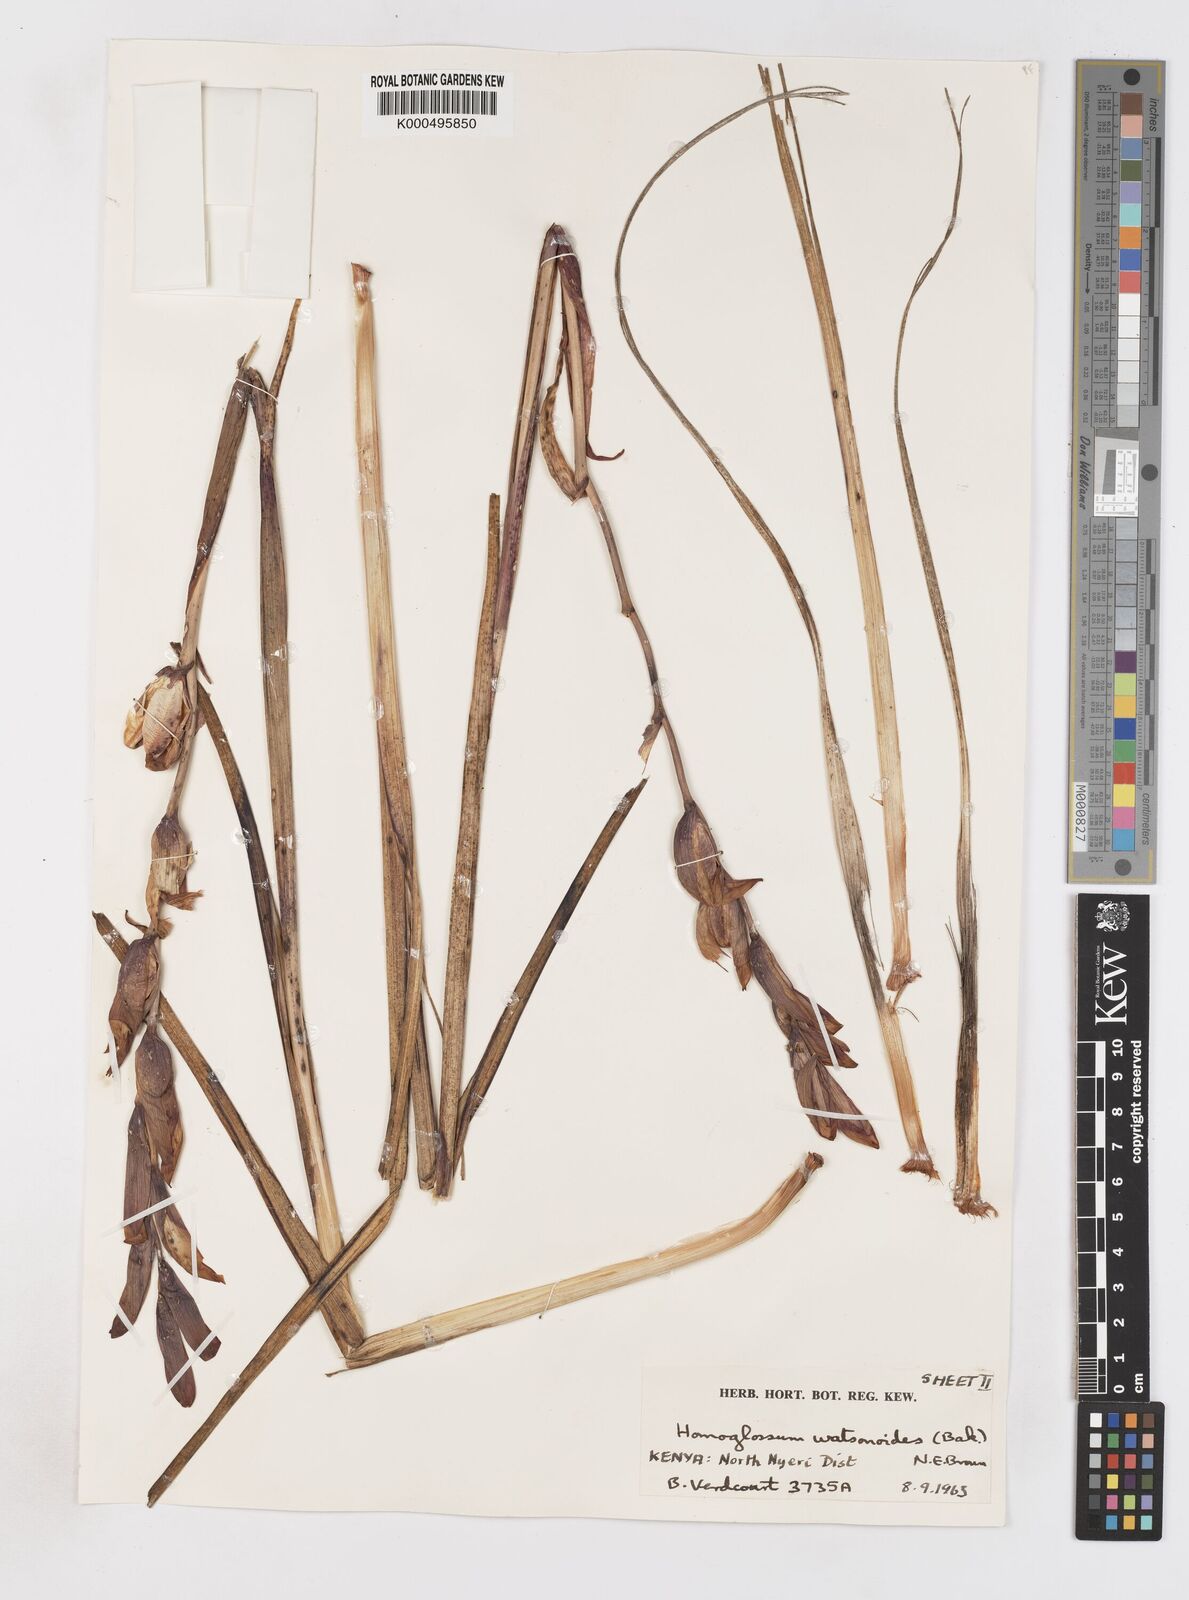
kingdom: Plantae
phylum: Tracheophyta
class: Liliopsida
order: Asparagales
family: Iridaceae
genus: Gladiolus
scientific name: Gladiolus watsonioides
